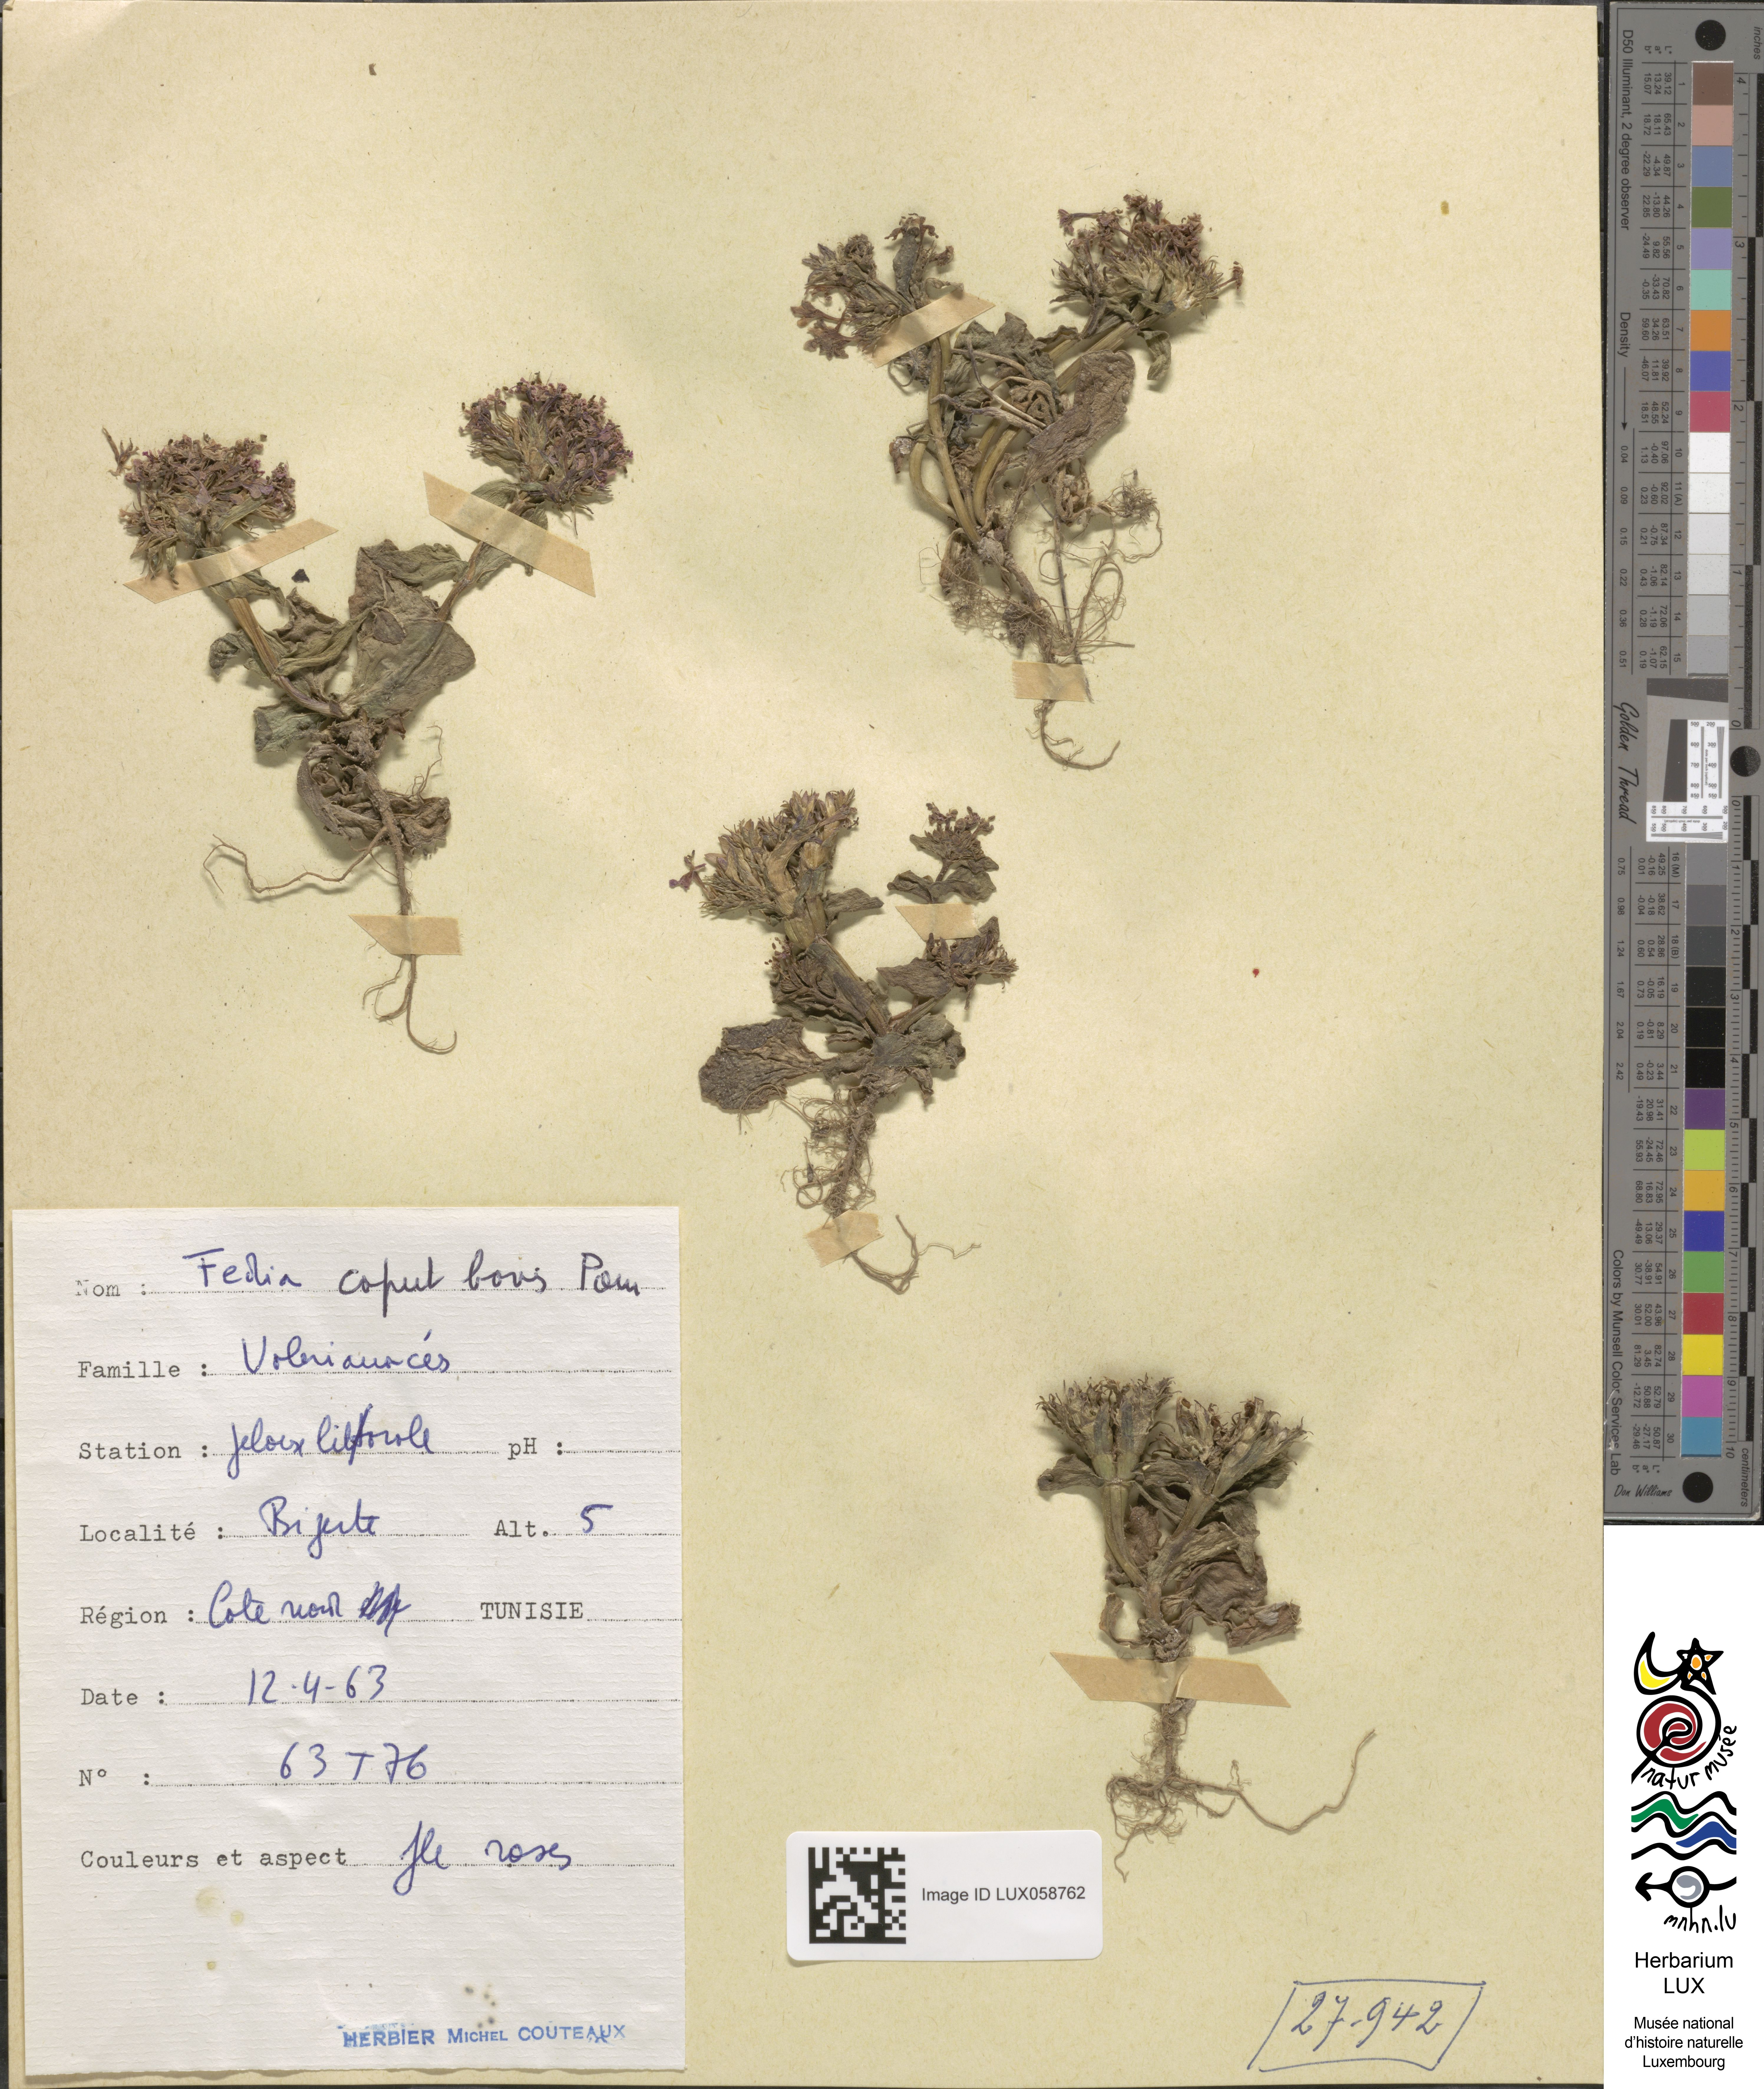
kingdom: Plantae
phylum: Tracheophyta
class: Magnoliopsida
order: Dipsacales
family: Caprifoliaceae
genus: Fedia
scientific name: Fedia graciliflora
